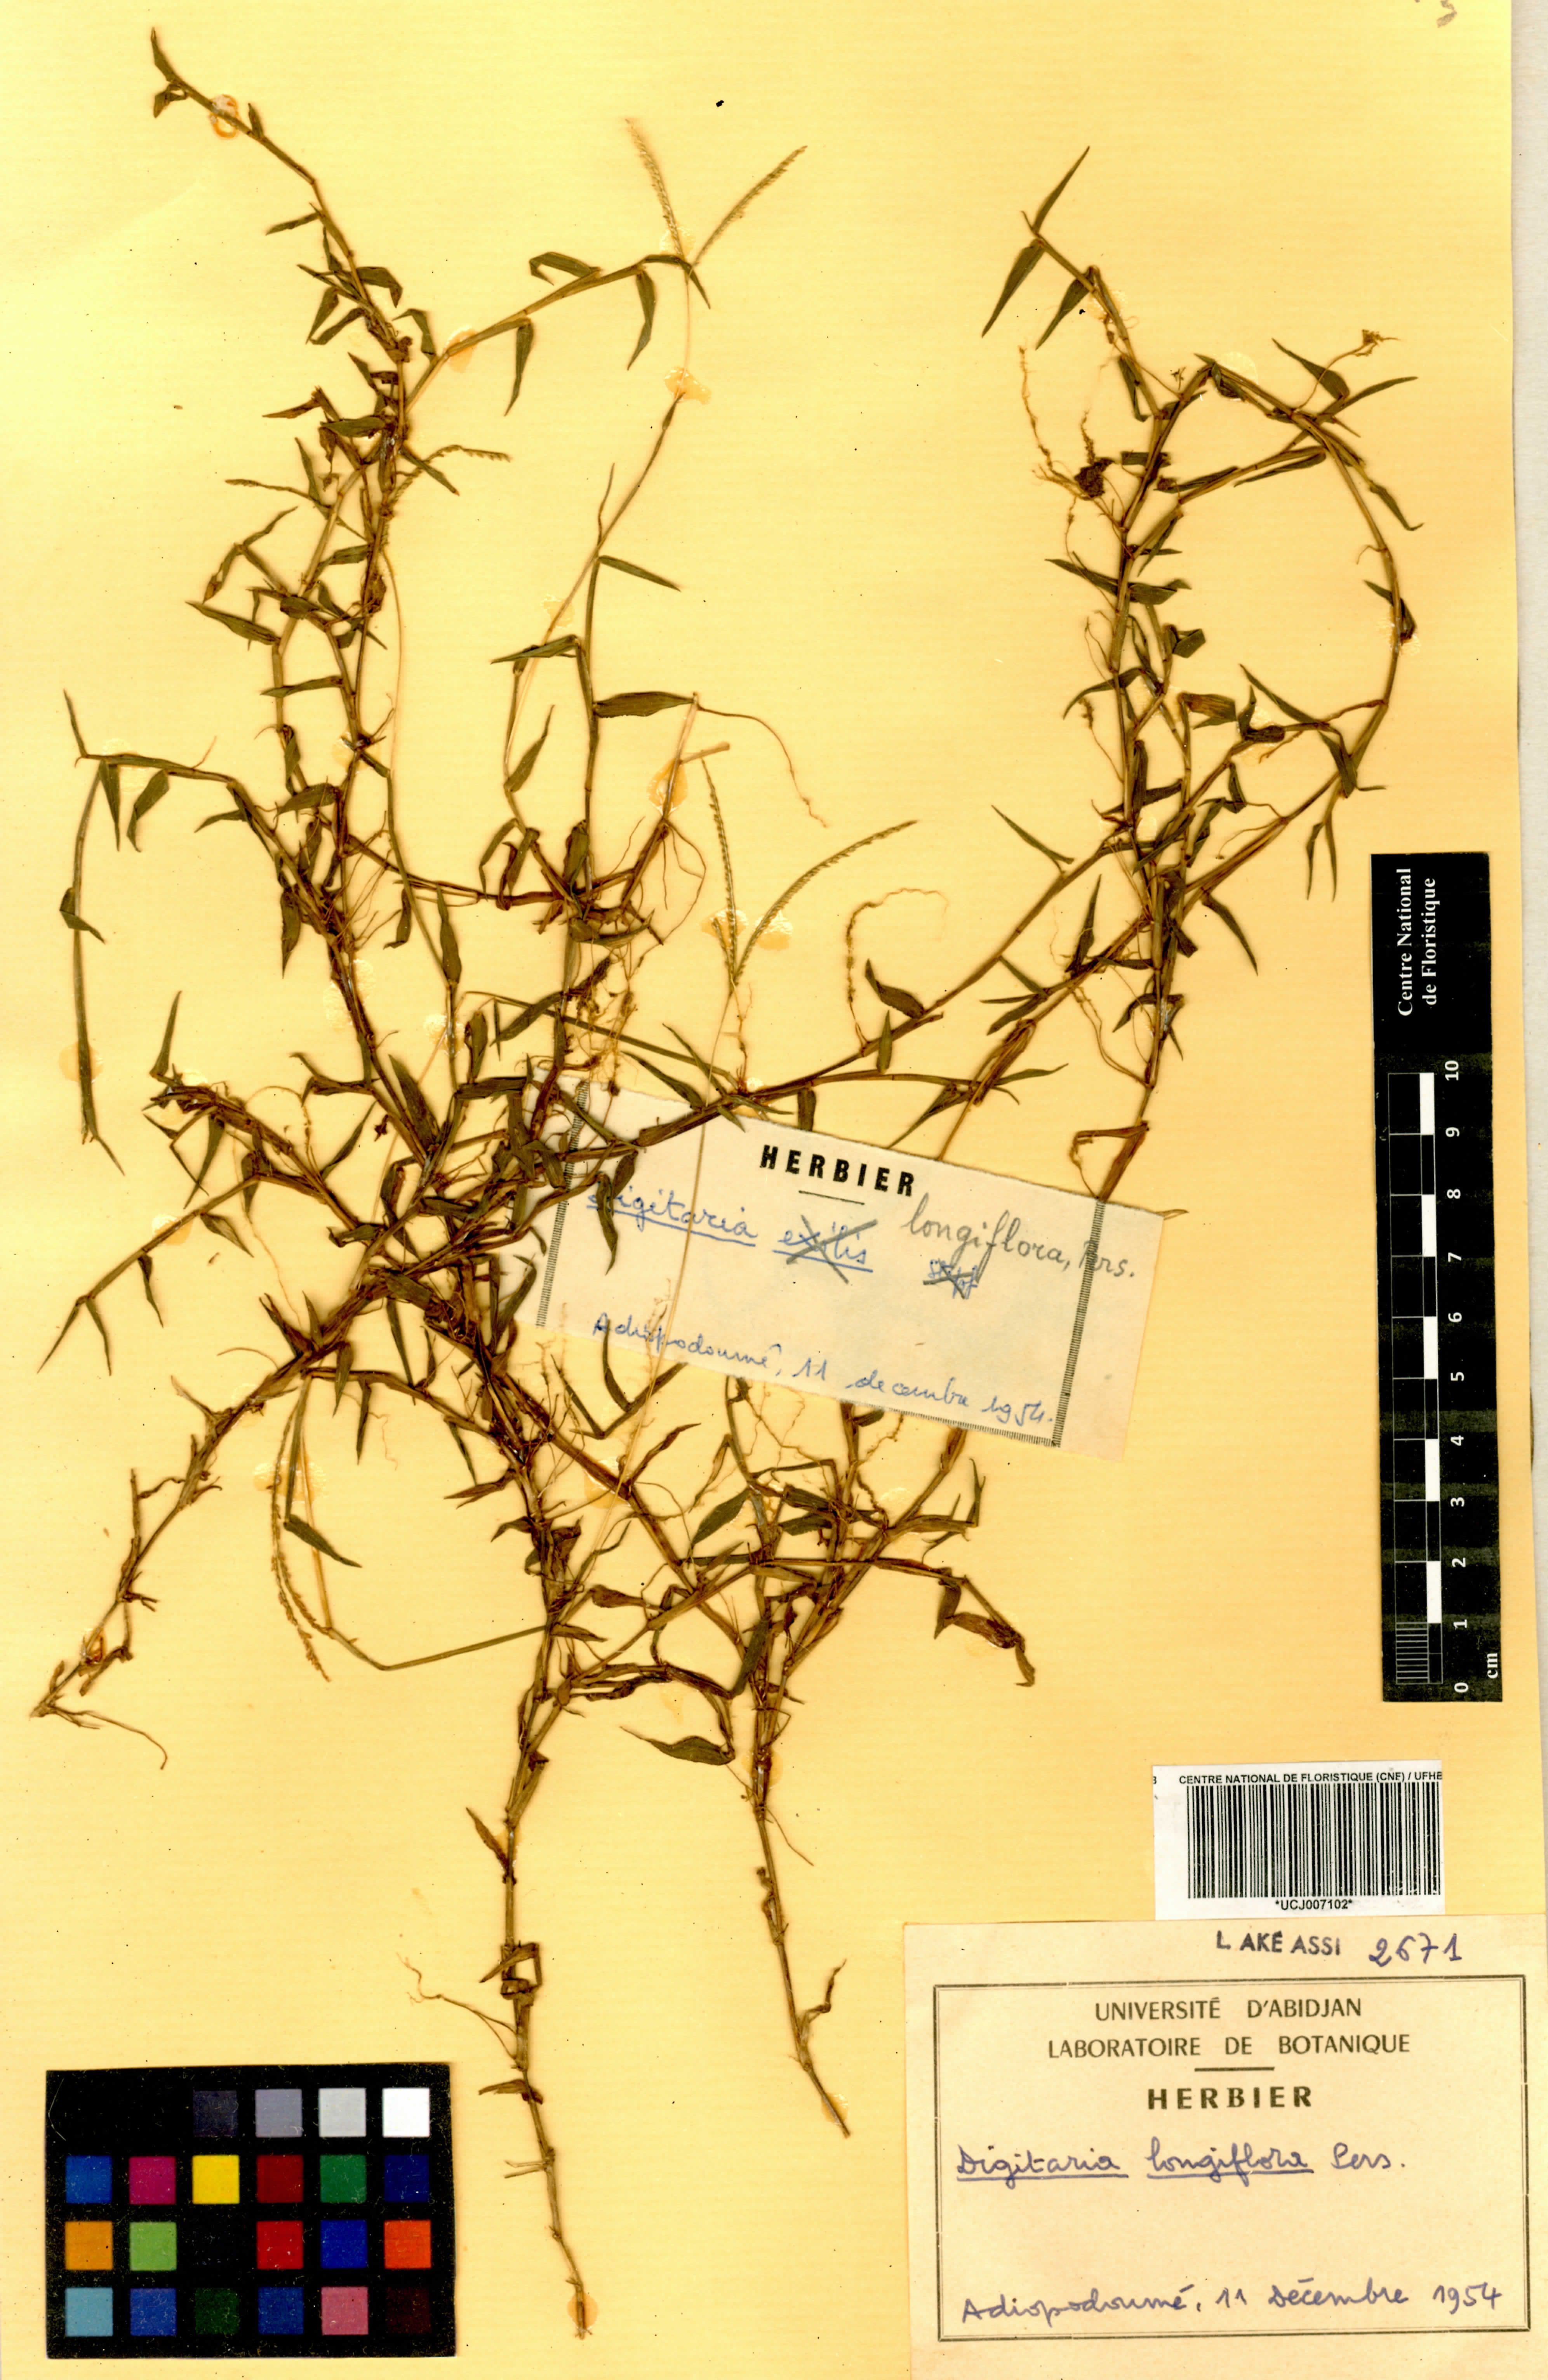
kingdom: Plantae
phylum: Tracheophyta
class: Liliopsida
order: Poales
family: Poaceae
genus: Digitaria
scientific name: Digitaria longiflora
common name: Wire crabgrass
